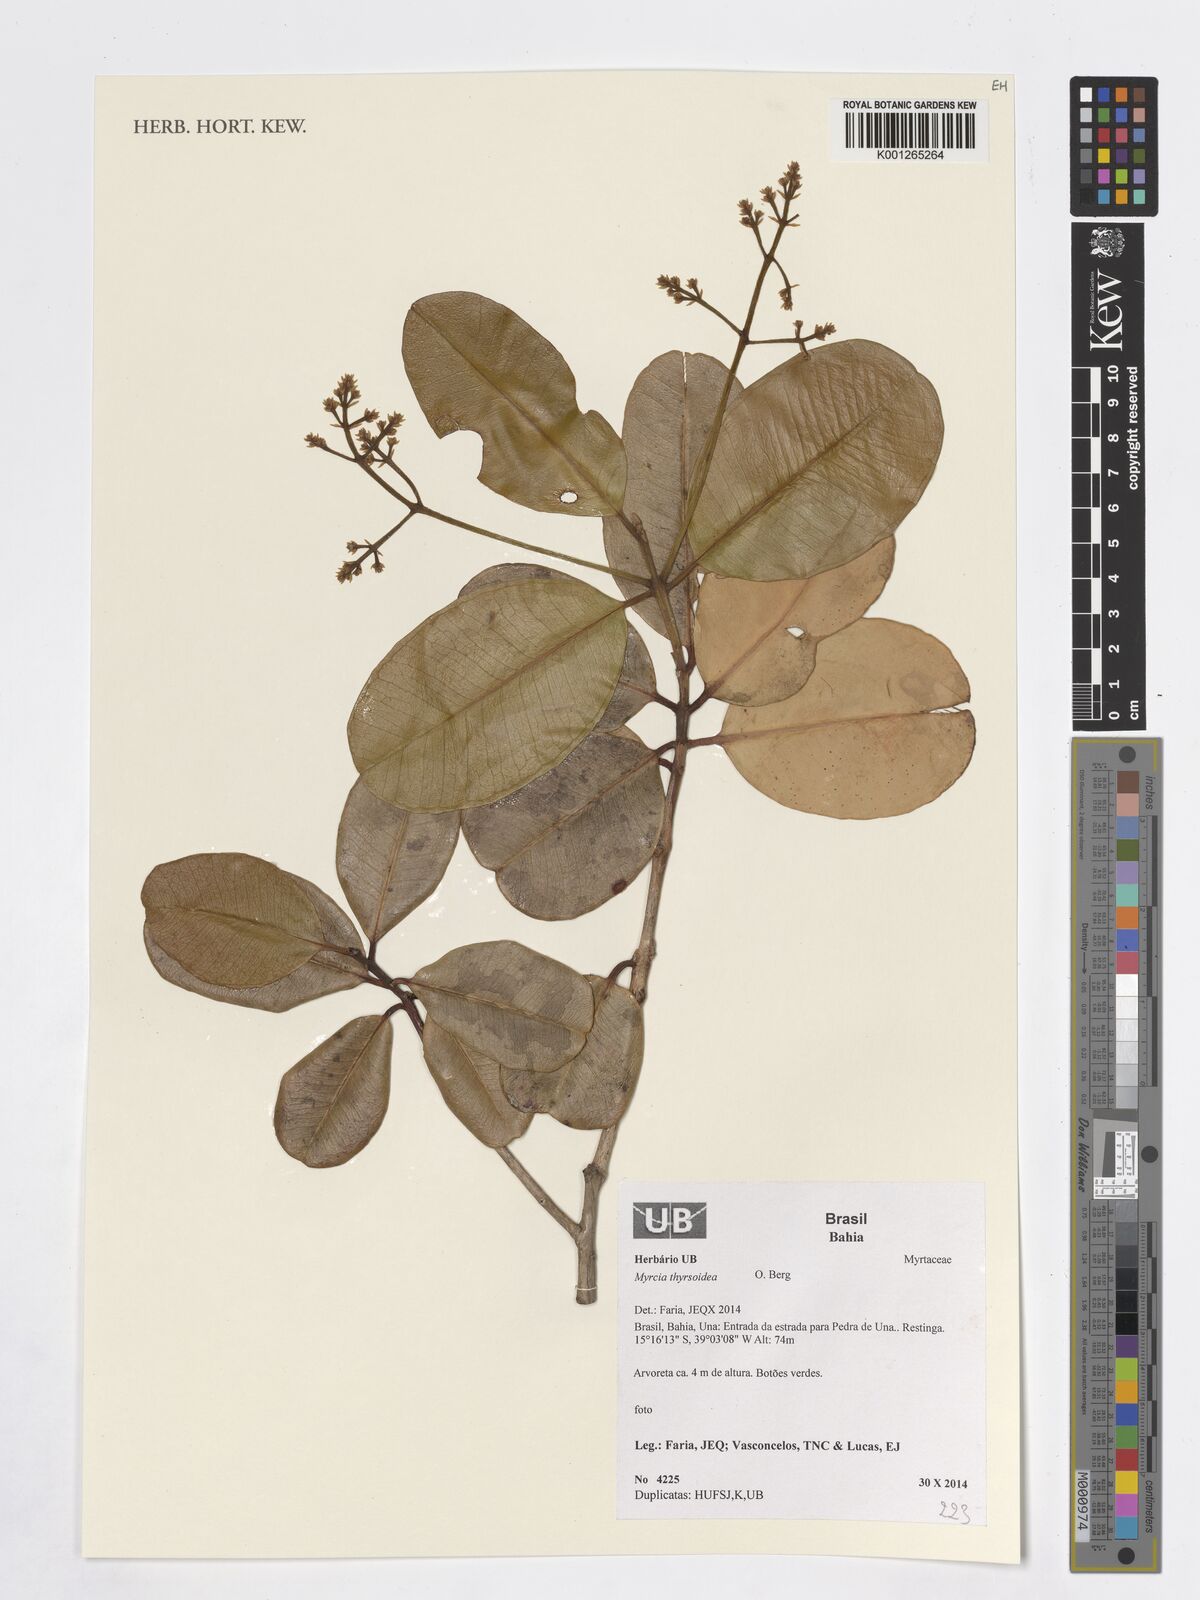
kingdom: Plantae
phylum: Tracheophyta
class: Magnoliopsida
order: Myrtales
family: Myrtaceae
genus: Myrcia
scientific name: Myrcia thyrsoidea
